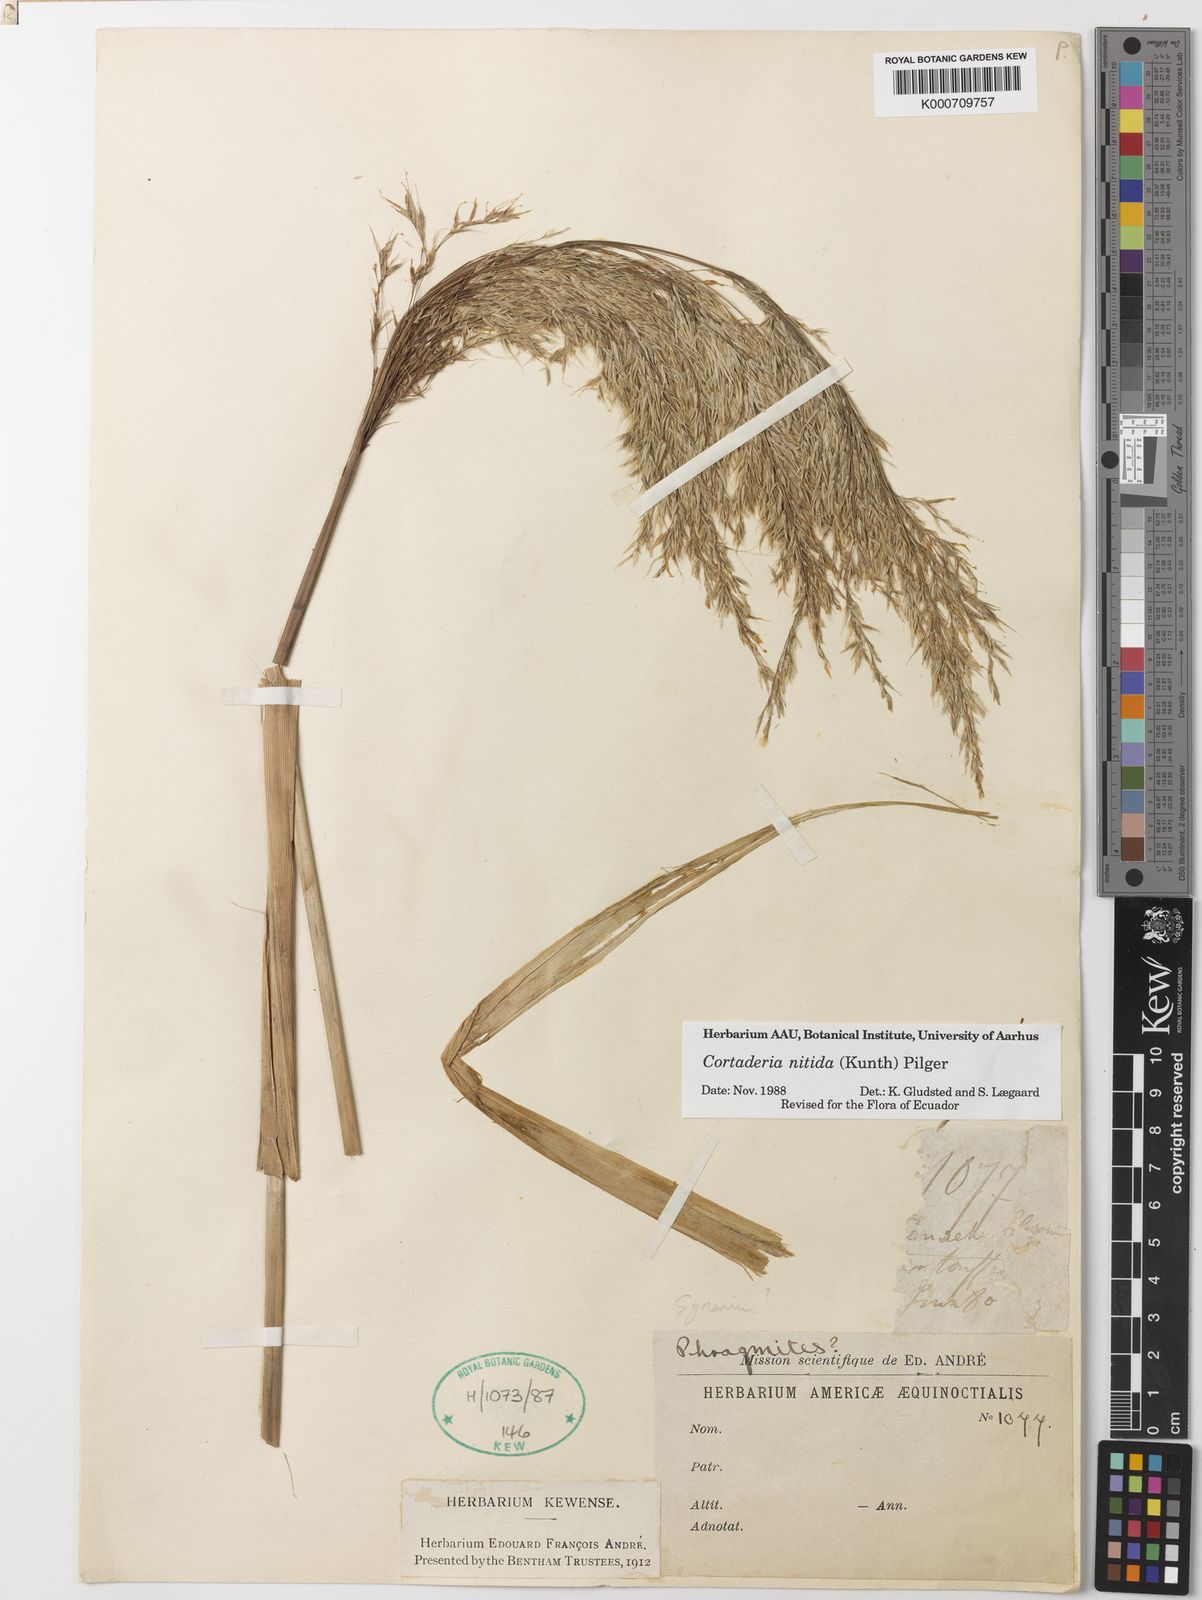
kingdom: Plantae
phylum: Tracheophyta
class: Liliopsida
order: Poales
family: Poaceae
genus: Cortaderia
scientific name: Cortaderia nitida
